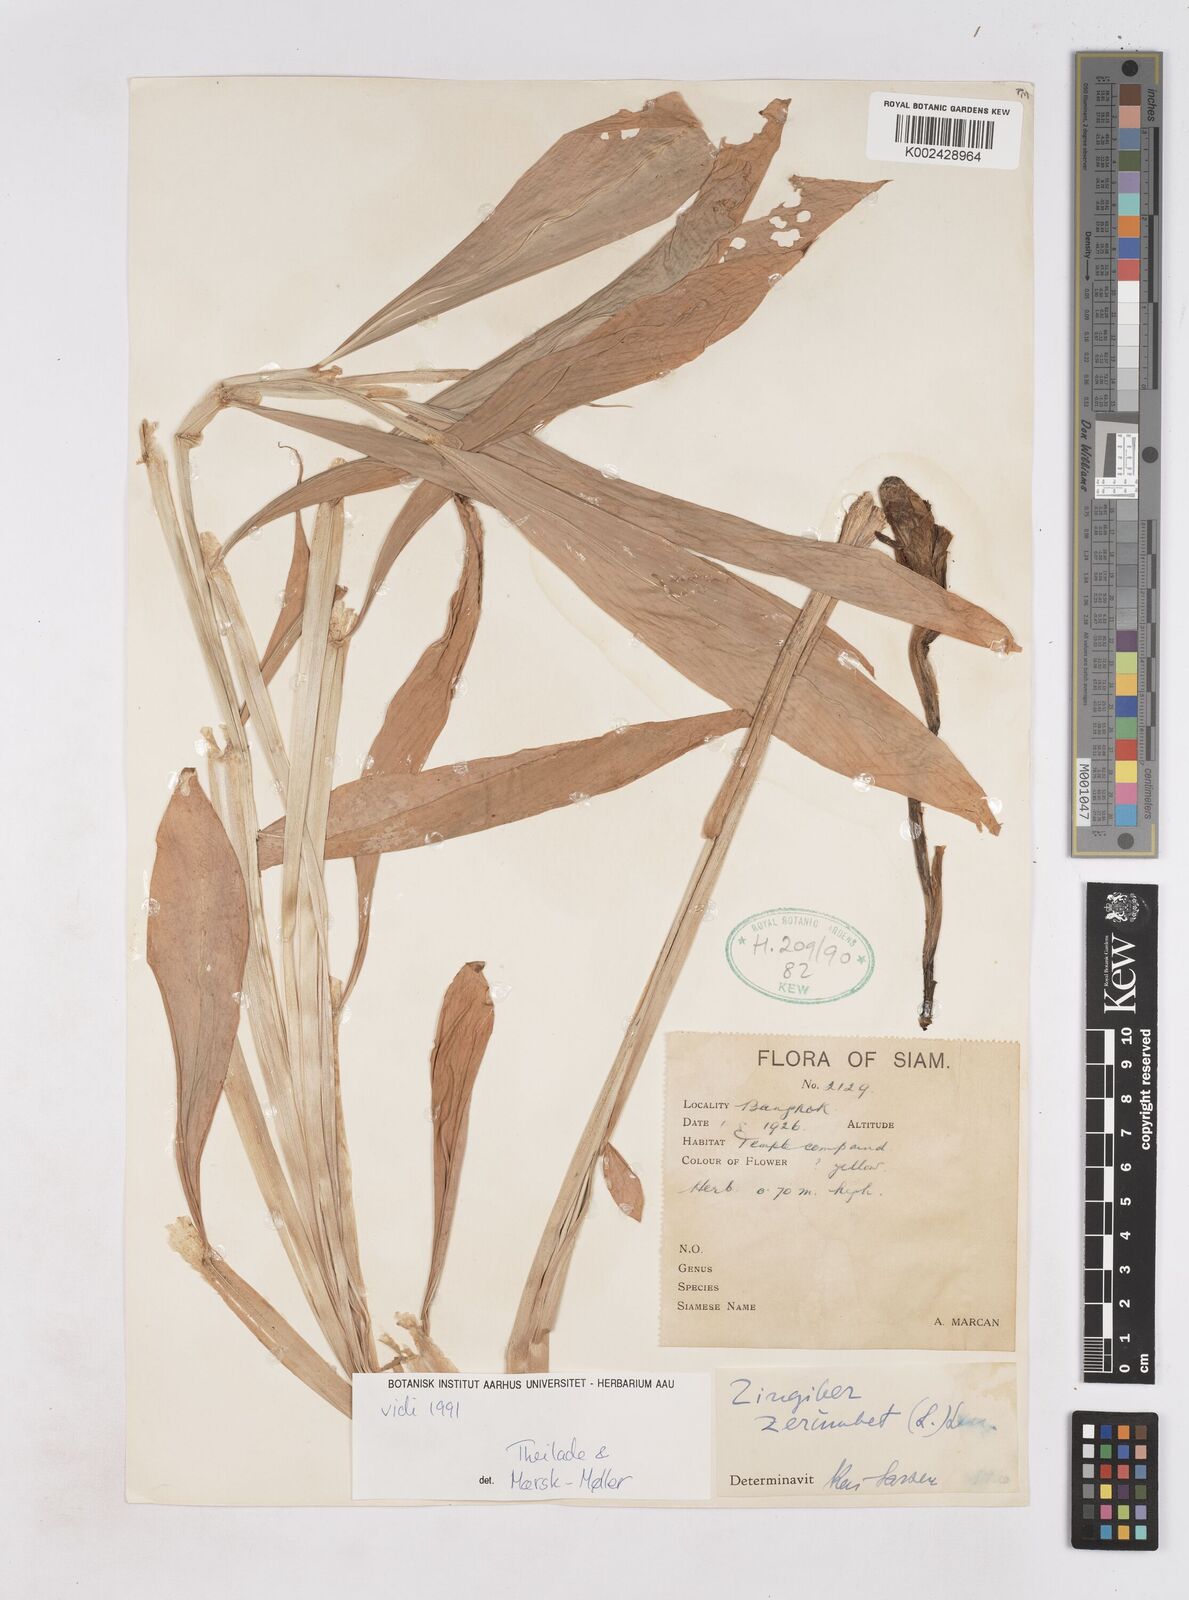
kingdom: Plantae
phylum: Tracheophyta
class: Liliopsida
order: Zingiberales
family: Zingiberaceae
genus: Zingiber
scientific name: Zingiber zerumbet
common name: Bitter ginger
